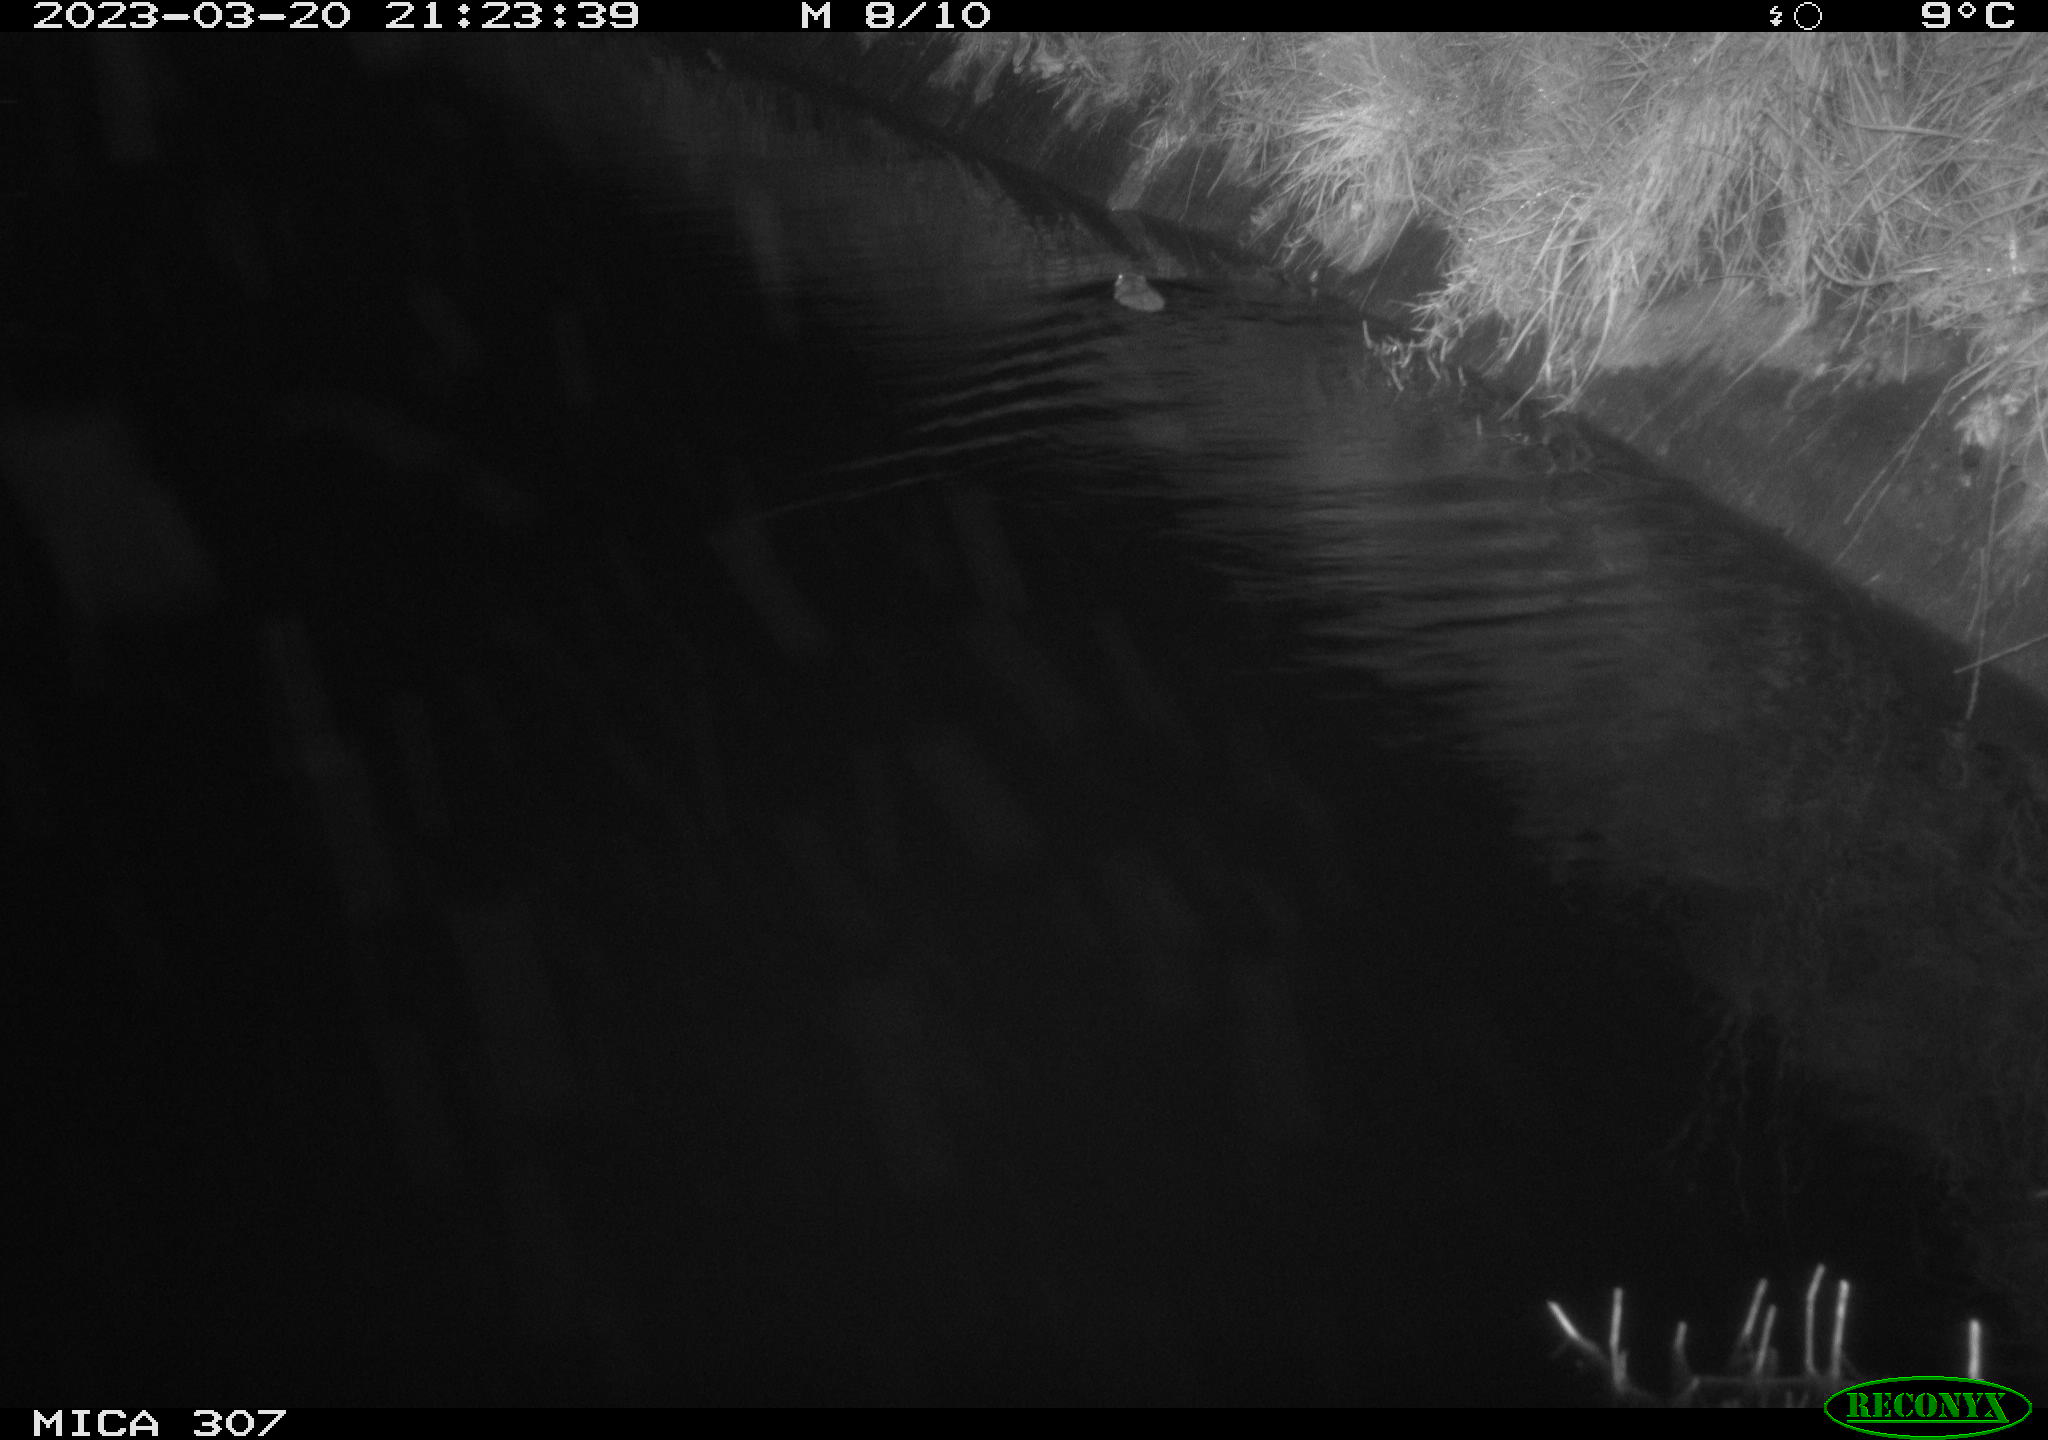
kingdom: Animalia
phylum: Chordata
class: Mammalia
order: Rodentia
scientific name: Rodentia
